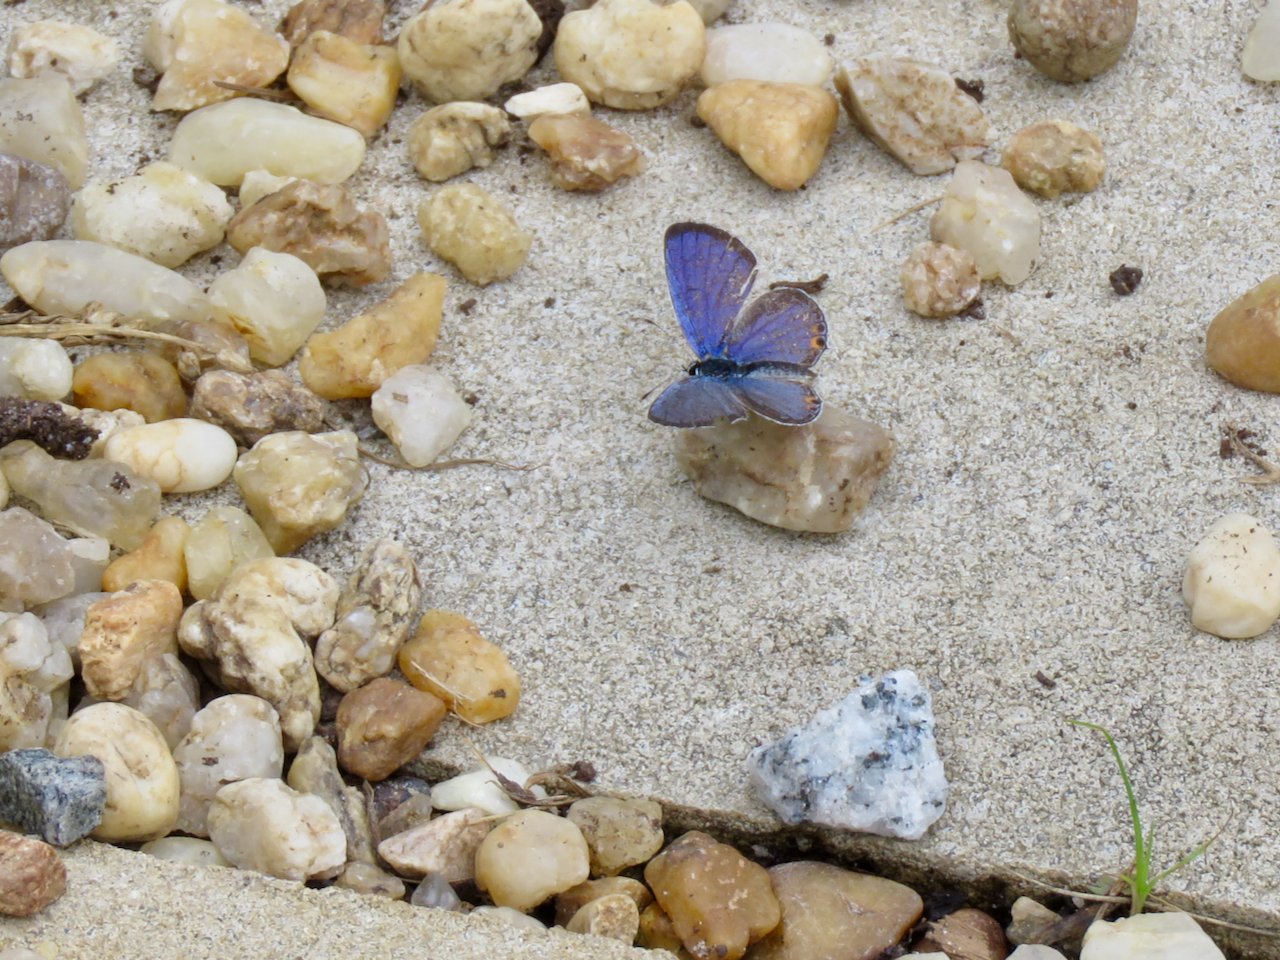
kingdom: Animalia
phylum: Arthropoda
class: Insecta
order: Lepidoptera
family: Lycaenidae
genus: Elkalyce
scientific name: Elkalyce comyntas
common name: Eastern Tailed-Blue
